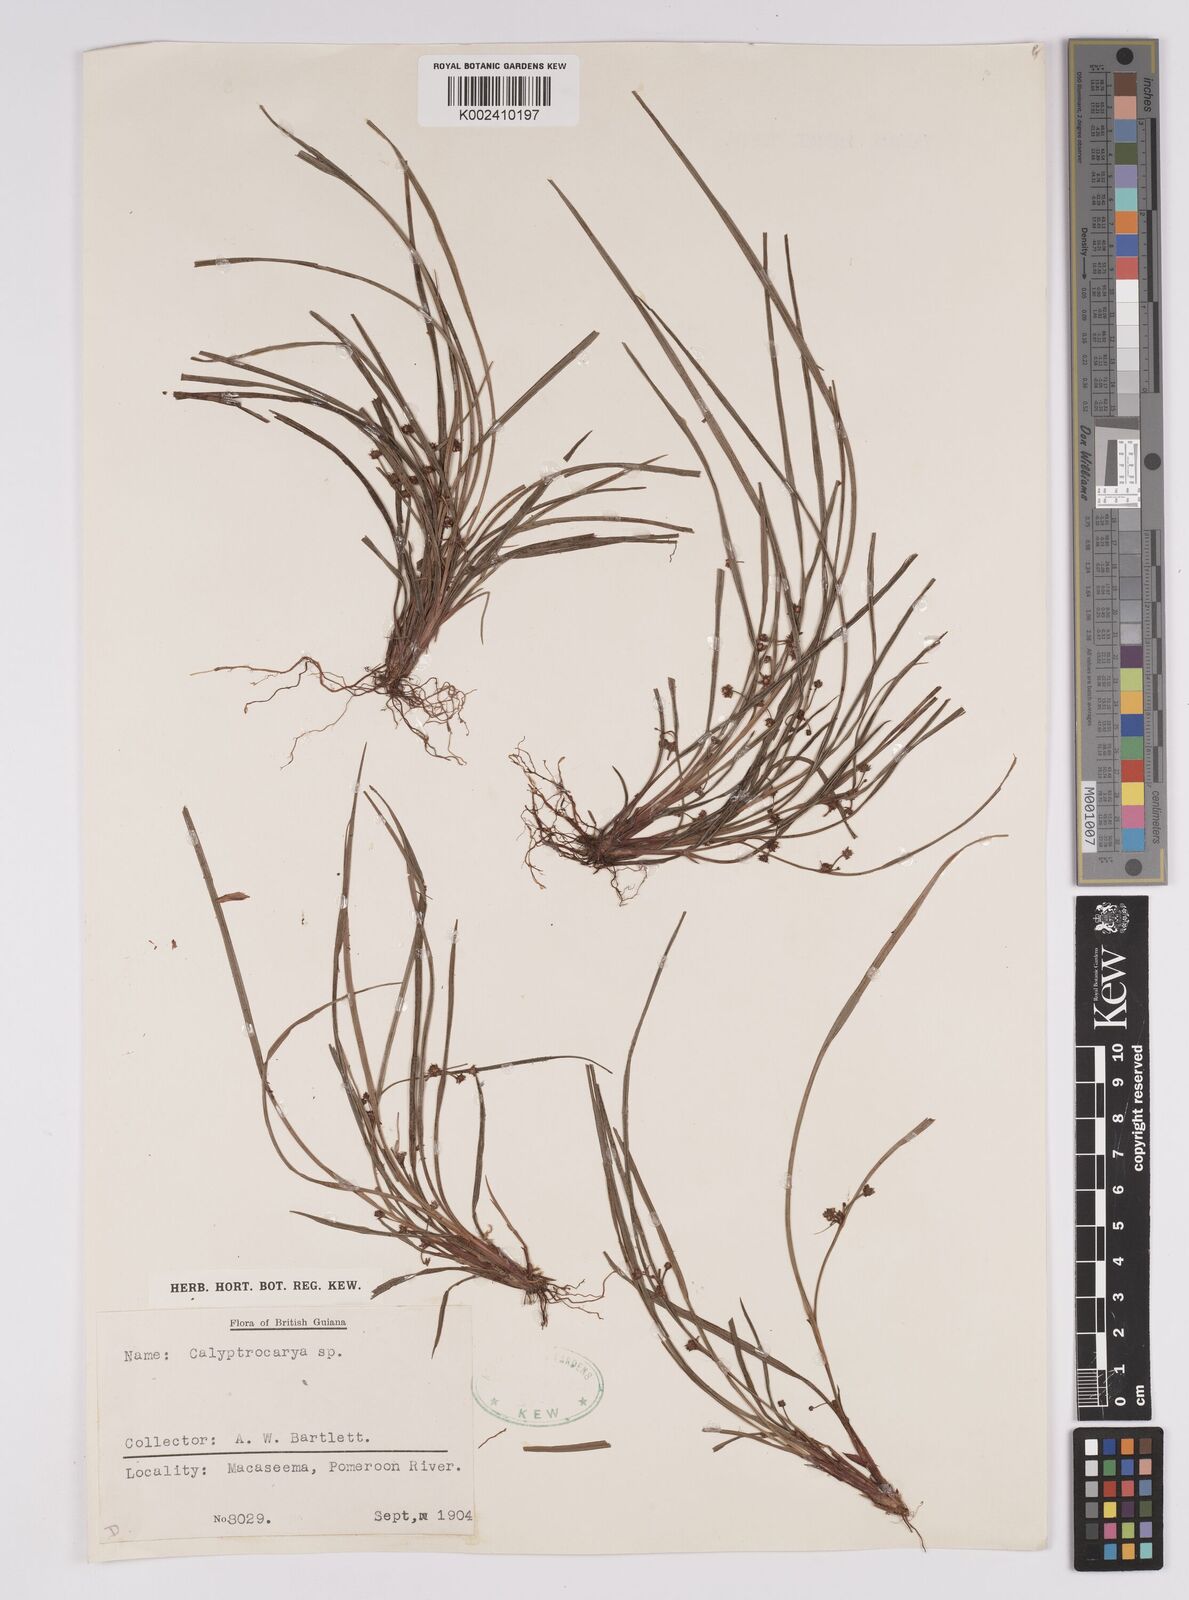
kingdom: Plantae
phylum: Tracheophyta
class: Liliopsida
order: Poales
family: Cyperaceae
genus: Calyptrocarya
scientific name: Calyptrocarya
